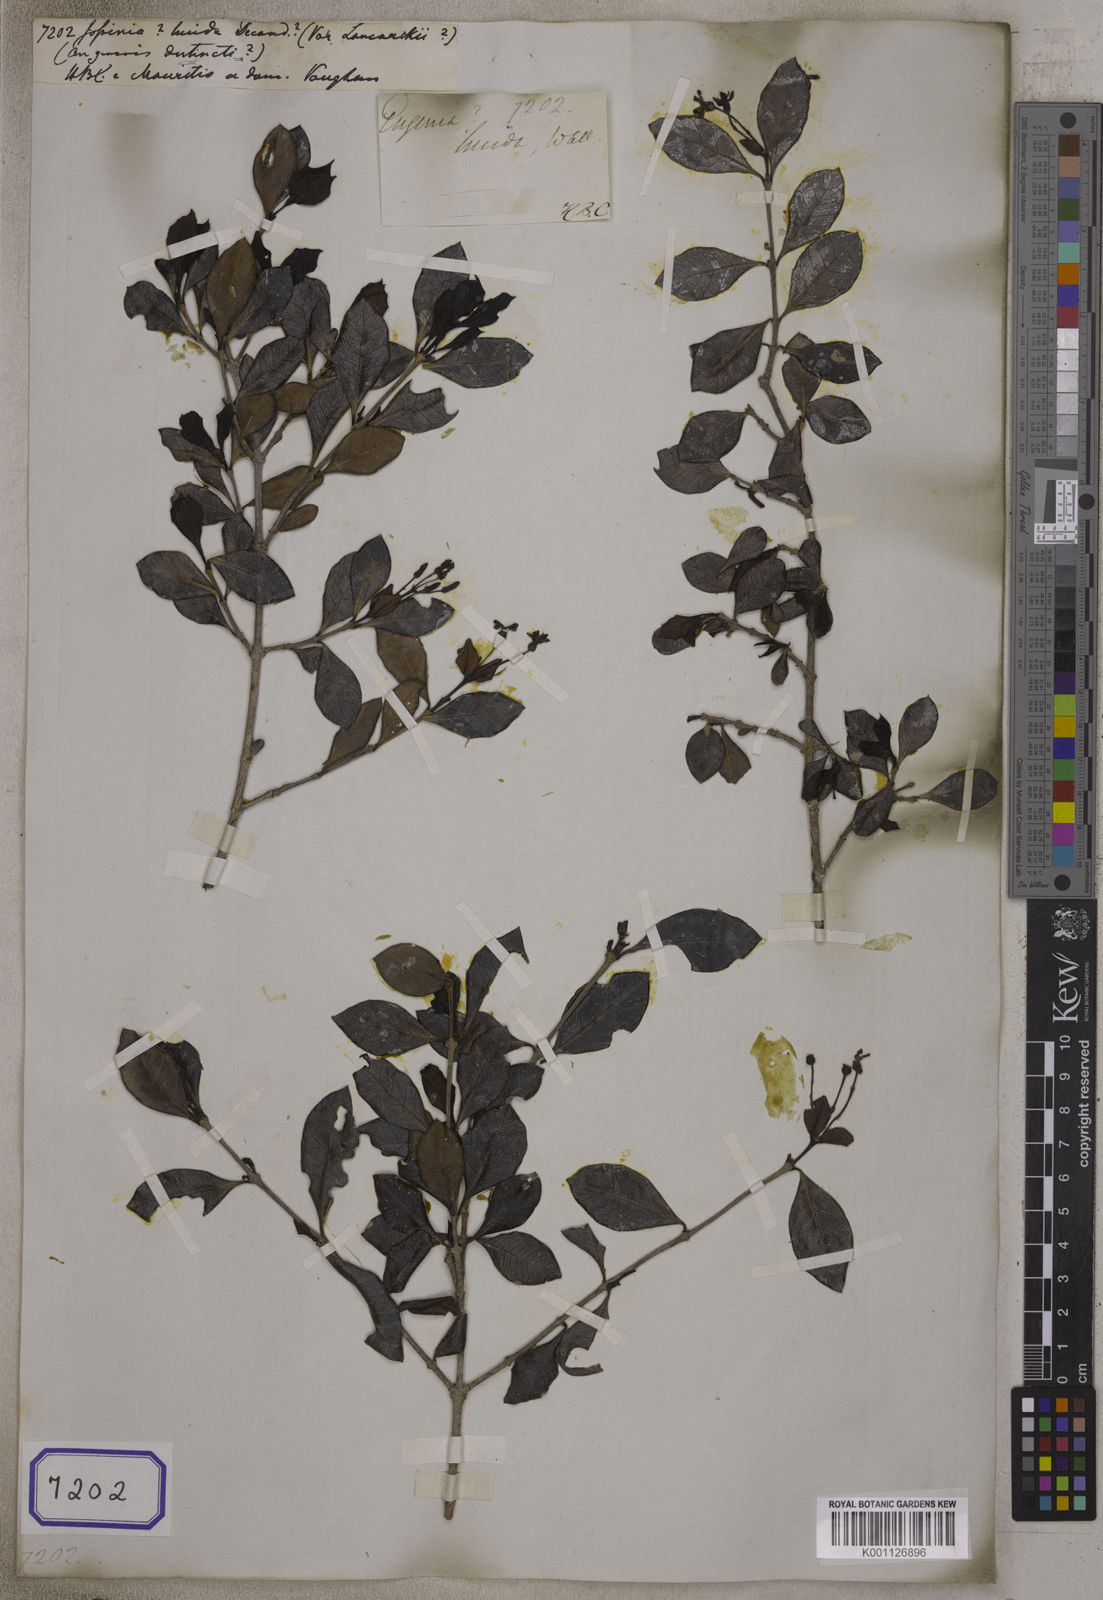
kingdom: Plantae
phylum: Tracheophyta
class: Magnoliopsida
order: Myrtales
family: Myrtaceae
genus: Eugenia
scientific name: Eugenia lucida
